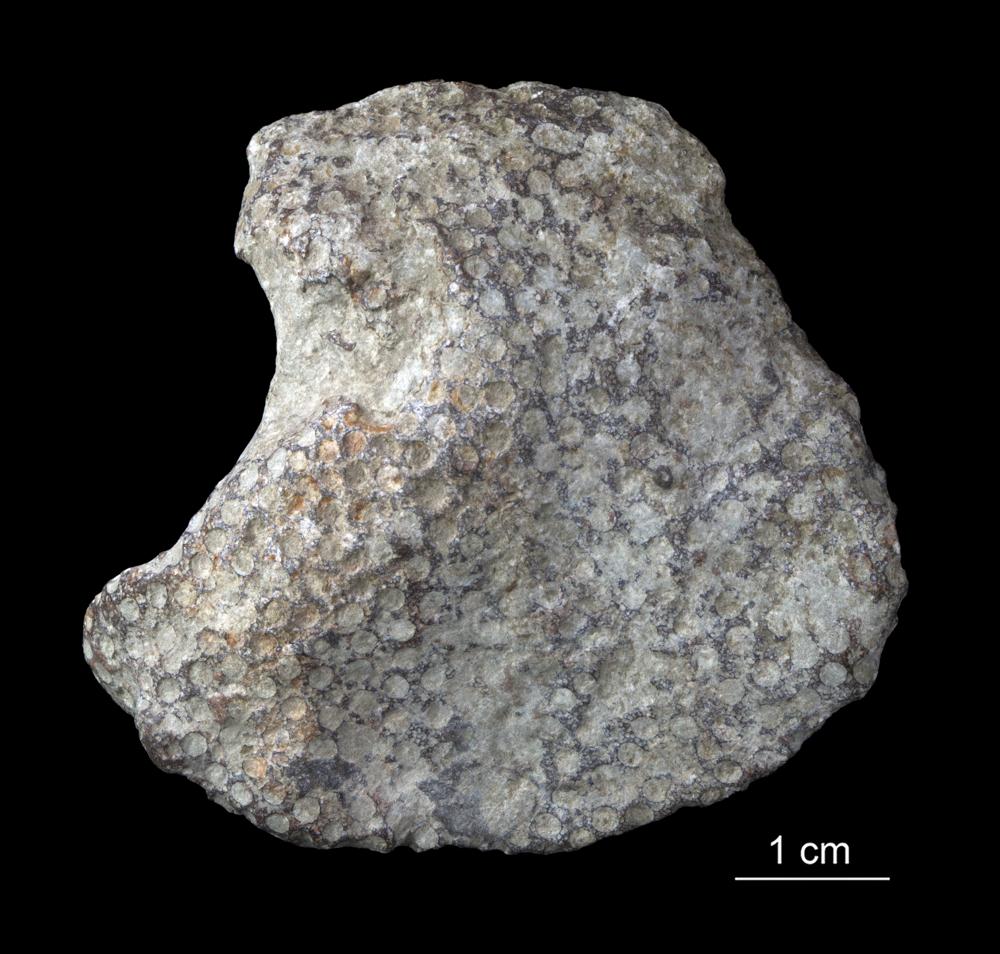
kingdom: Animalia
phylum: Cnidaria
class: Anthozoa
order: Heliolitina
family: Heliolitidae
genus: Heliolites
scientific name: Heliolites
